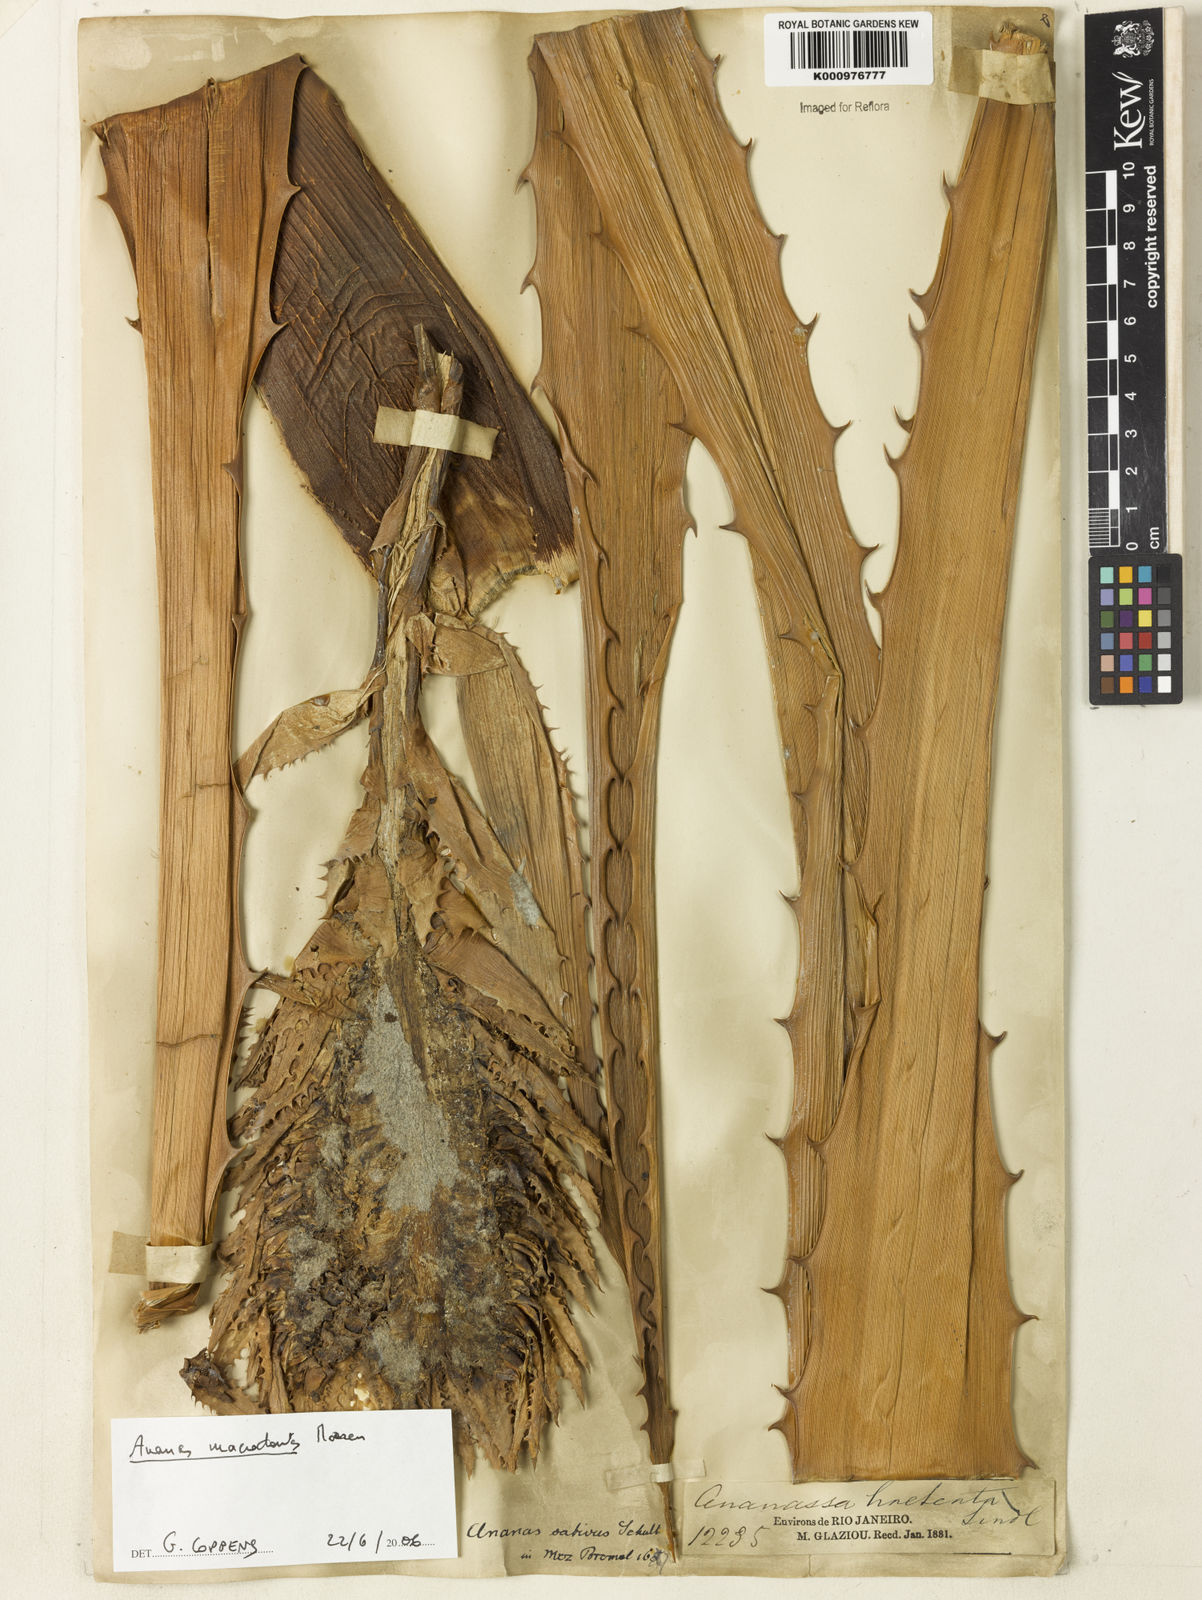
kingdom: Plantae
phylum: Tracheophyta
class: Liliopsida
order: Poales
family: Bromeliaceae
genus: Ananas
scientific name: Ananas macrodontes
